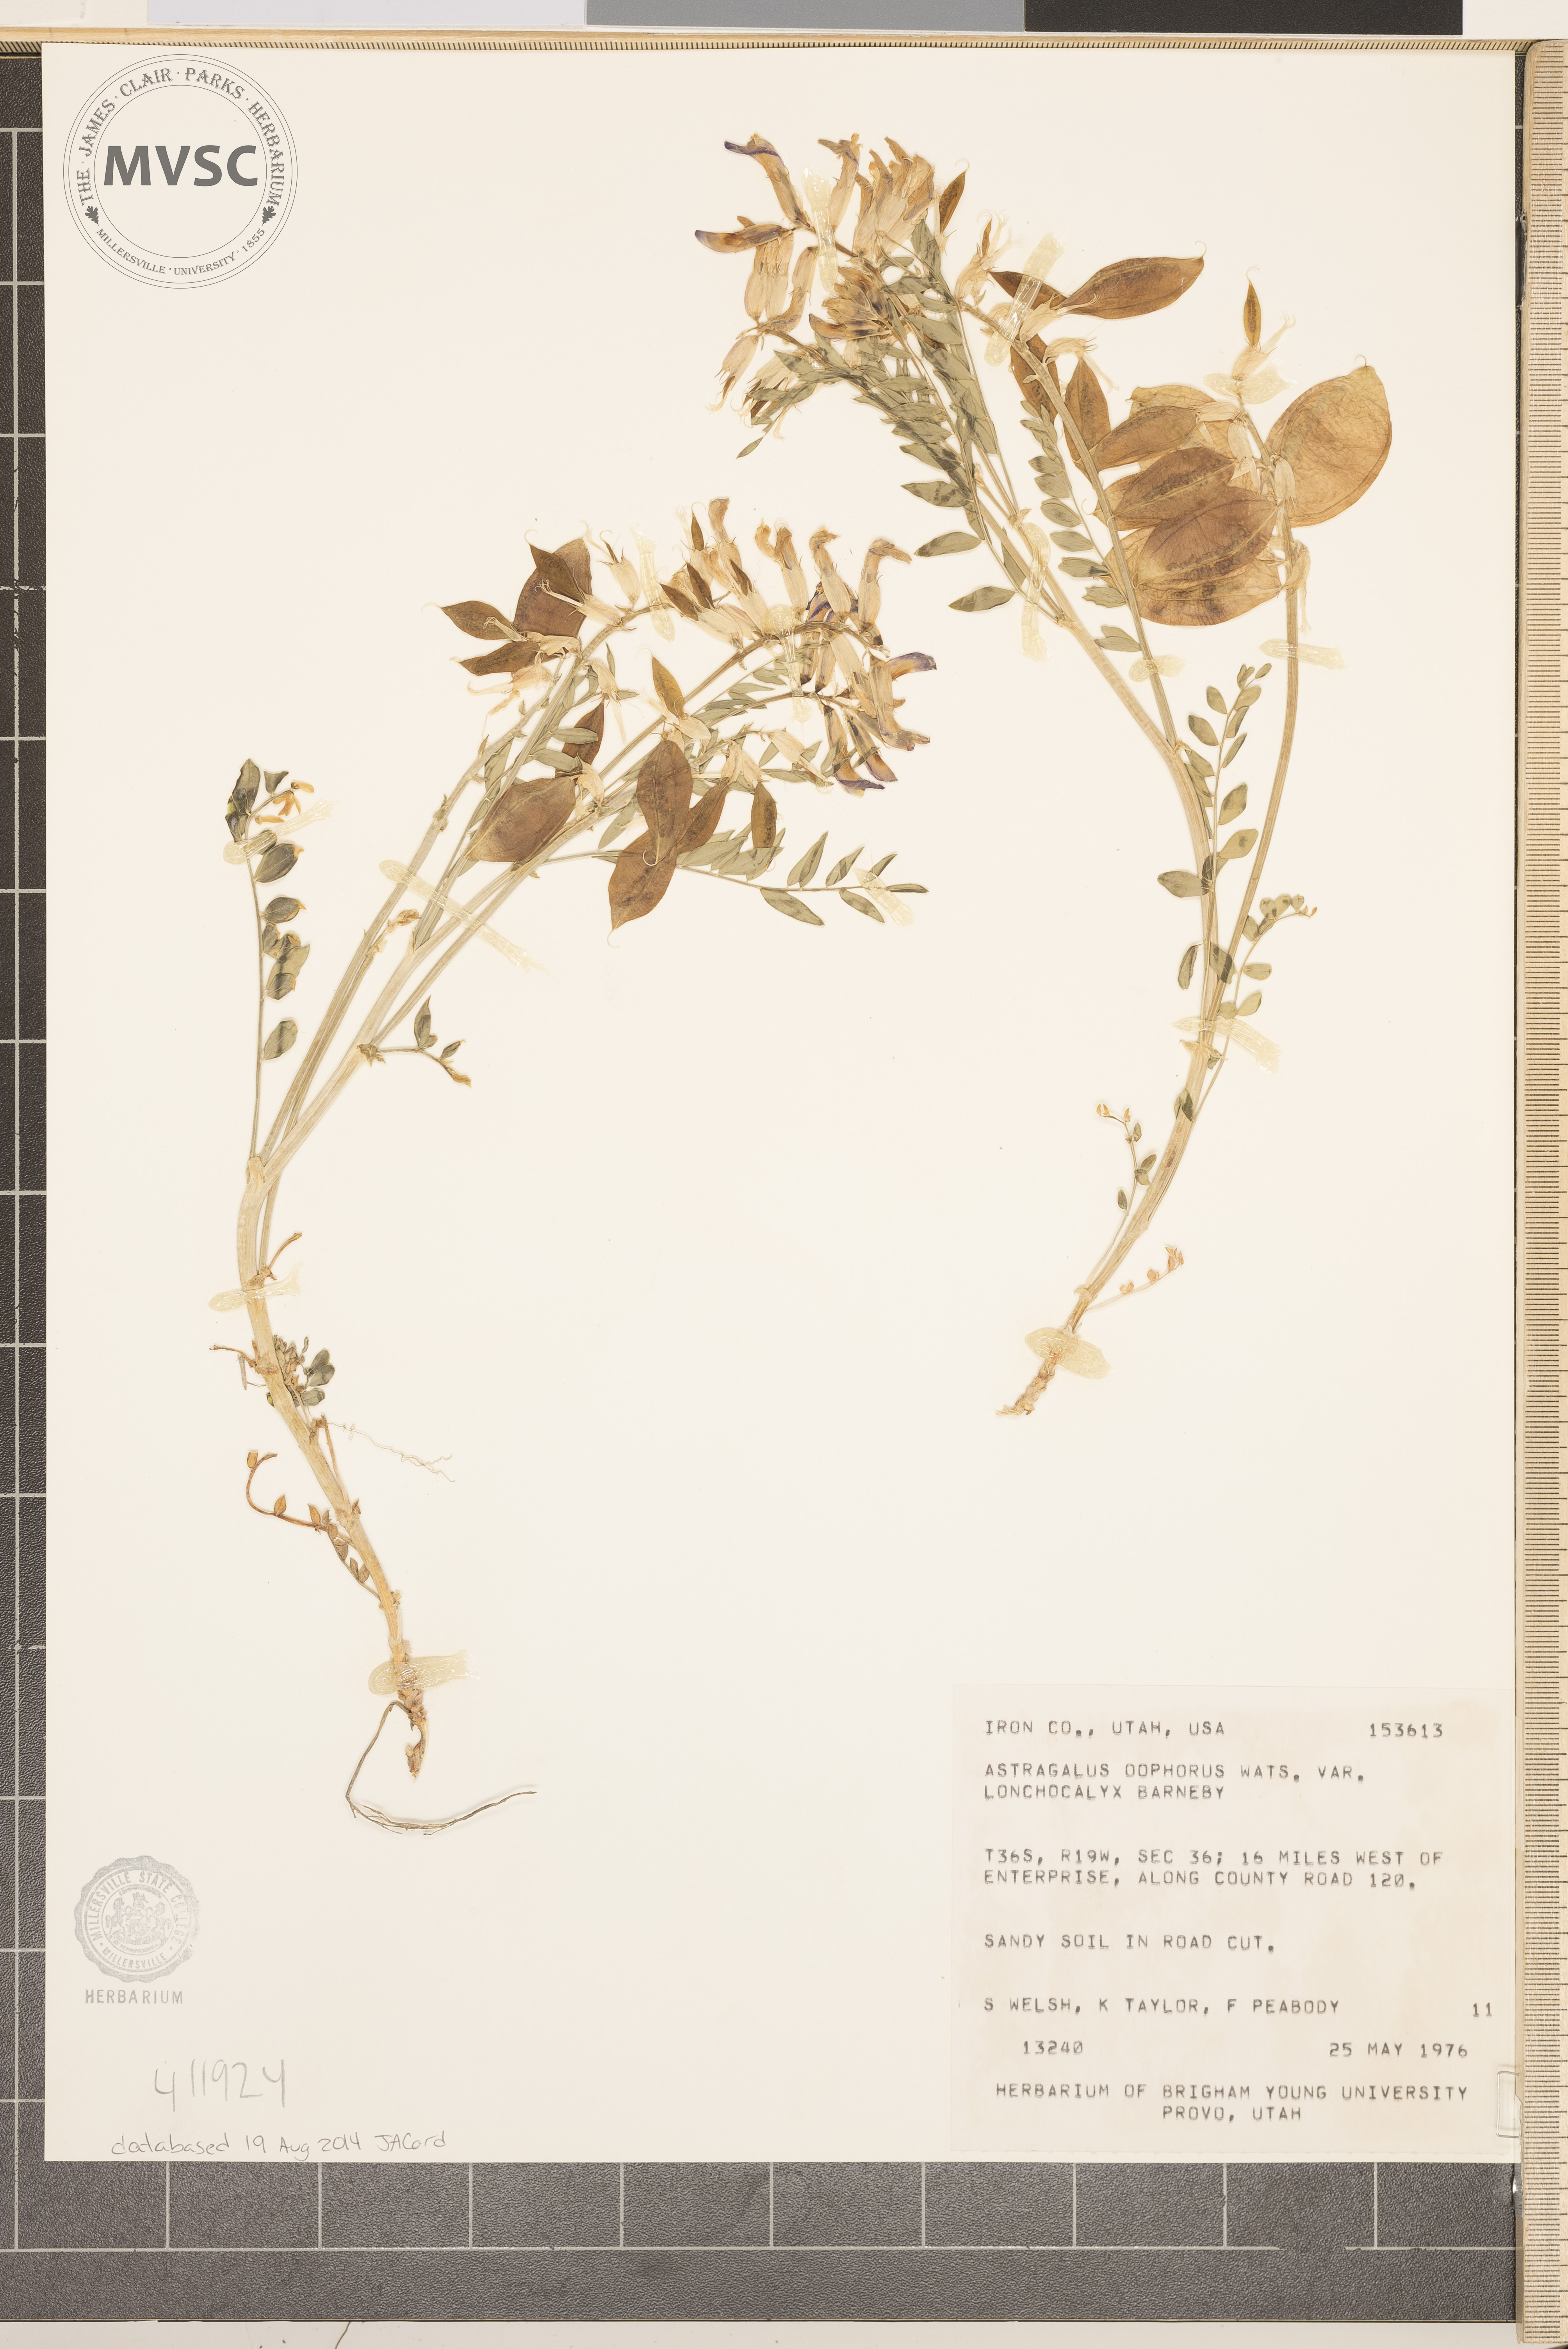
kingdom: Plantae
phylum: Tracheophyta
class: Magnoliopsida
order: Fabales
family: Fabaceae
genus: Astragalus
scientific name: Astragalus oophorus
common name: Egg milkvetch
